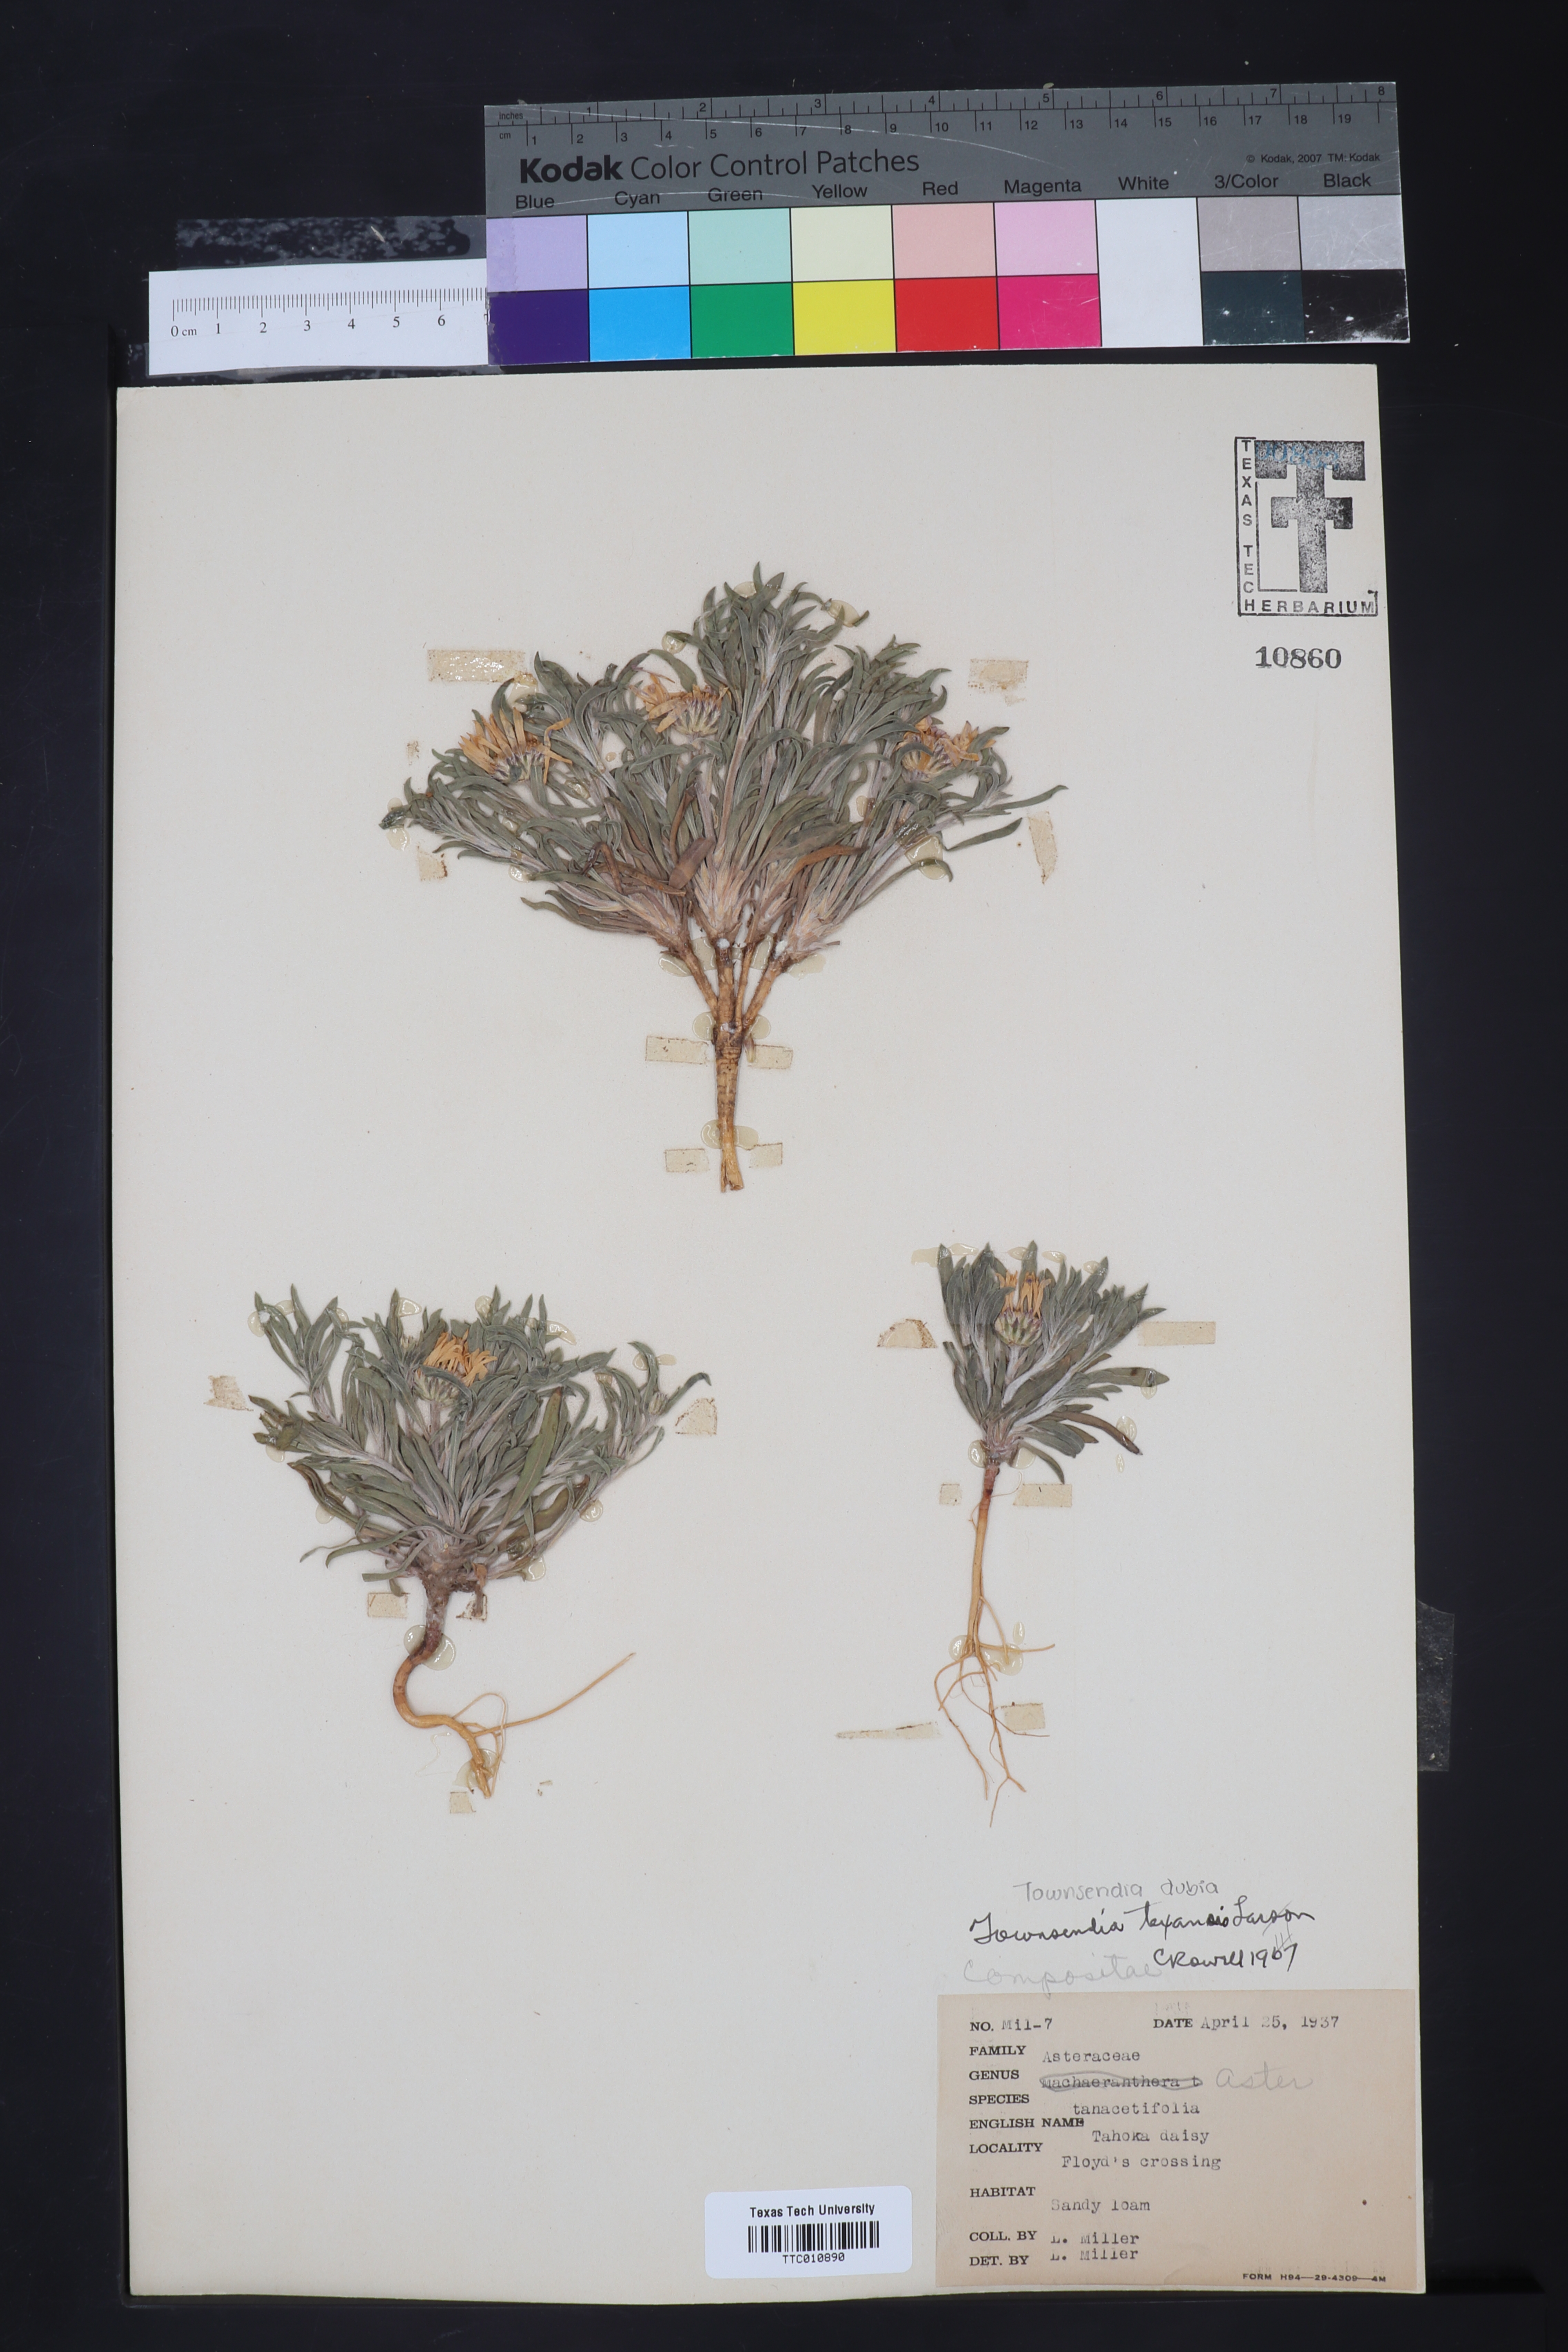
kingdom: Plantae
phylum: Tracheophyta
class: Magnoliopsida
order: Asterales
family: Asteraceae
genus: Townsendia
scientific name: Townsendia texensis
